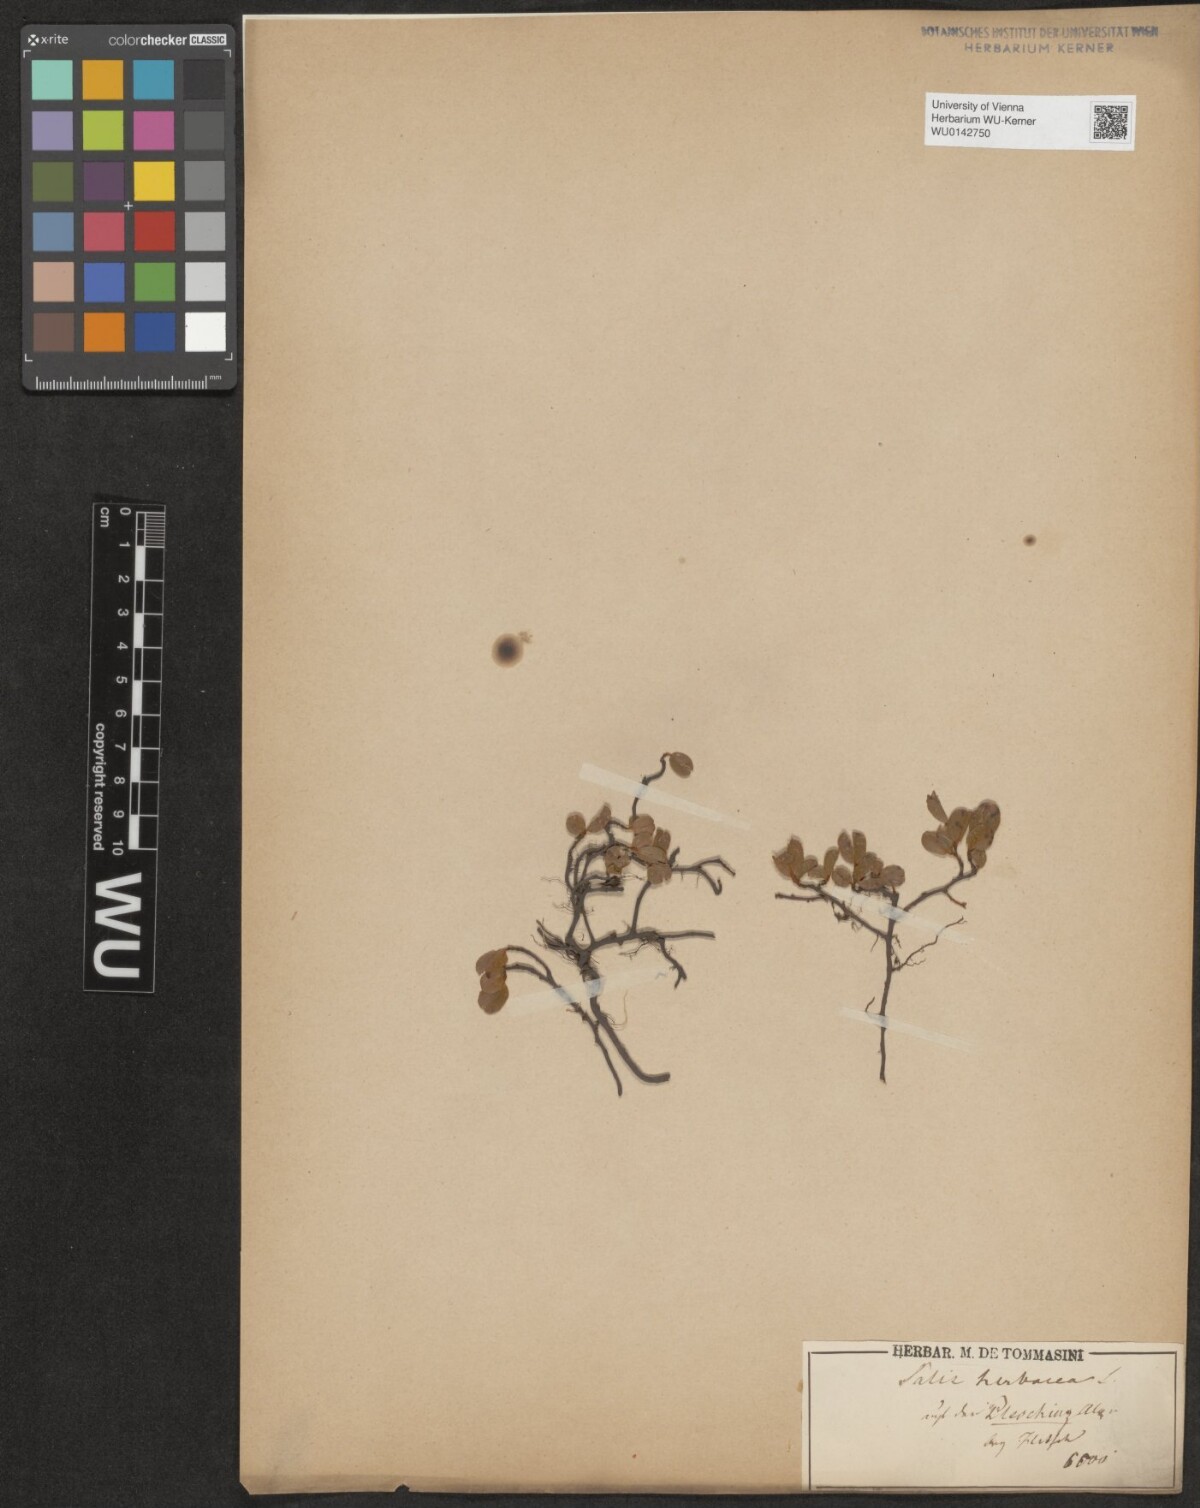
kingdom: Plantae
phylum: Tracheophyta
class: Magnoliopsida
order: Malpighiales
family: Salicaceae
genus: Salix
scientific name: Salix herbacea
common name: Dwarf willow
